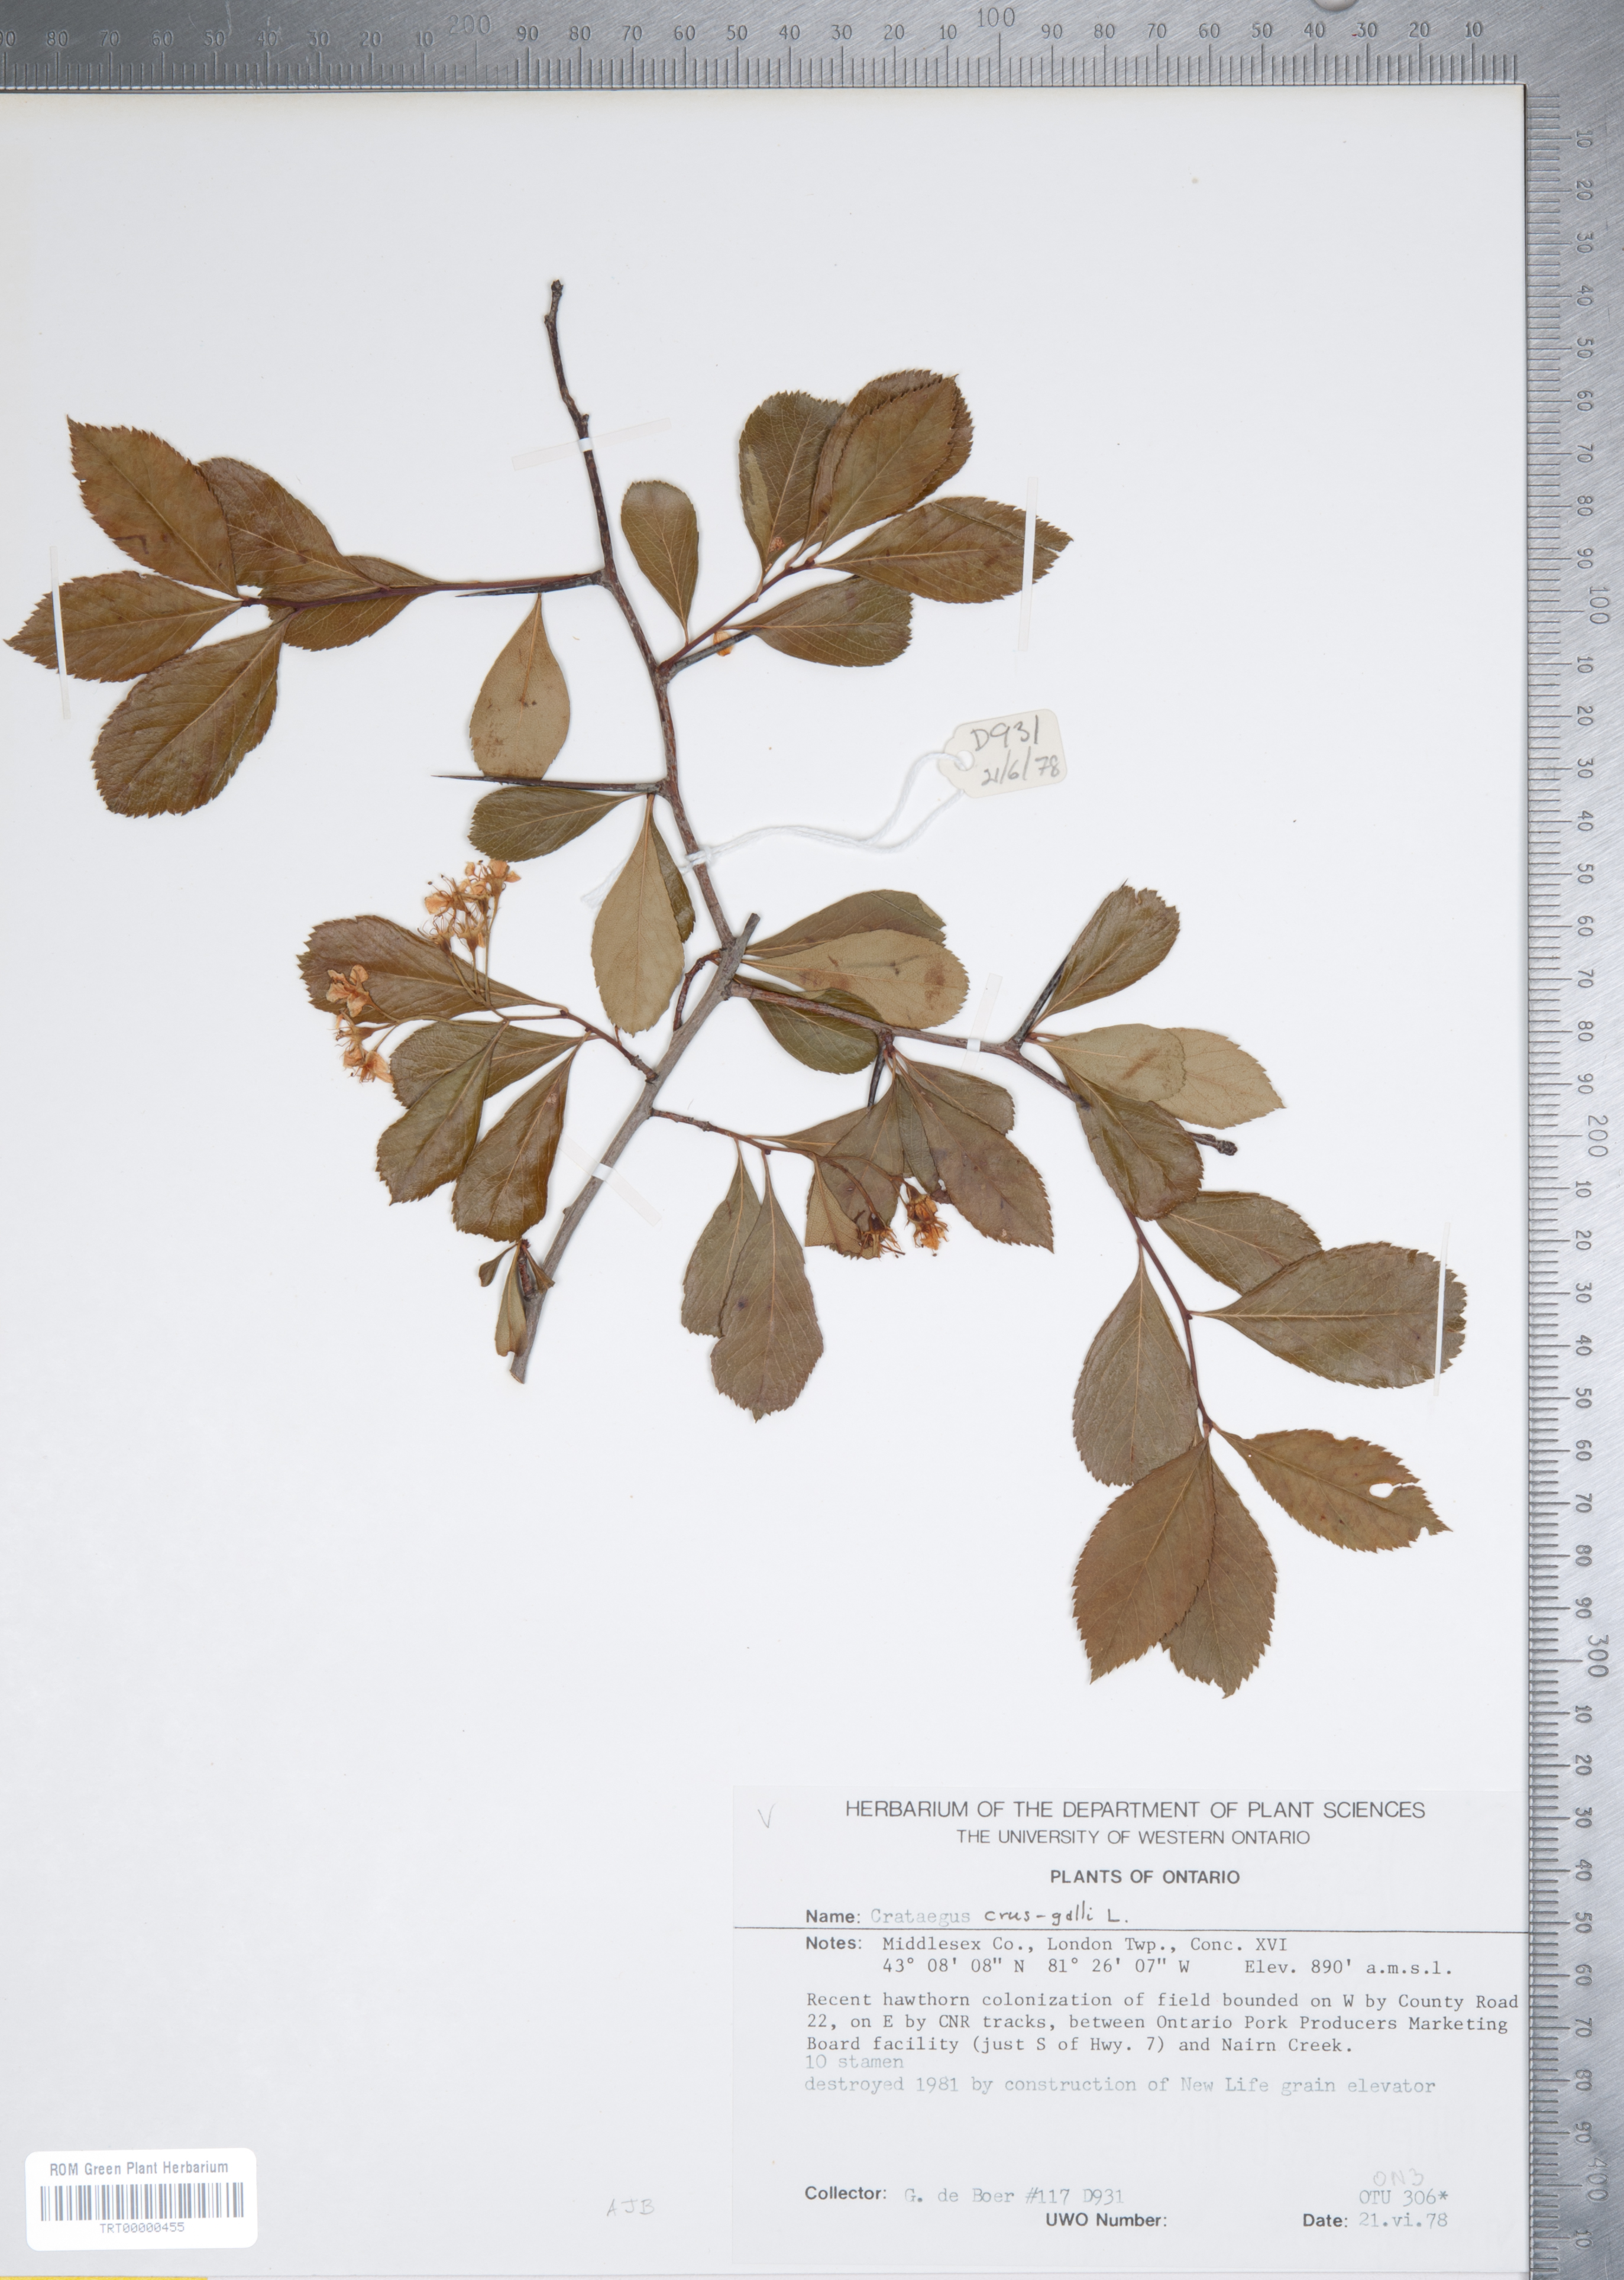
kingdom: Plantae
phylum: Tracheophyta
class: Magnoliopsida
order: Rosales
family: Rosaceae
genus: Crataegus
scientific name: Crataegus crus-galli
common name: Cockspurthorn
